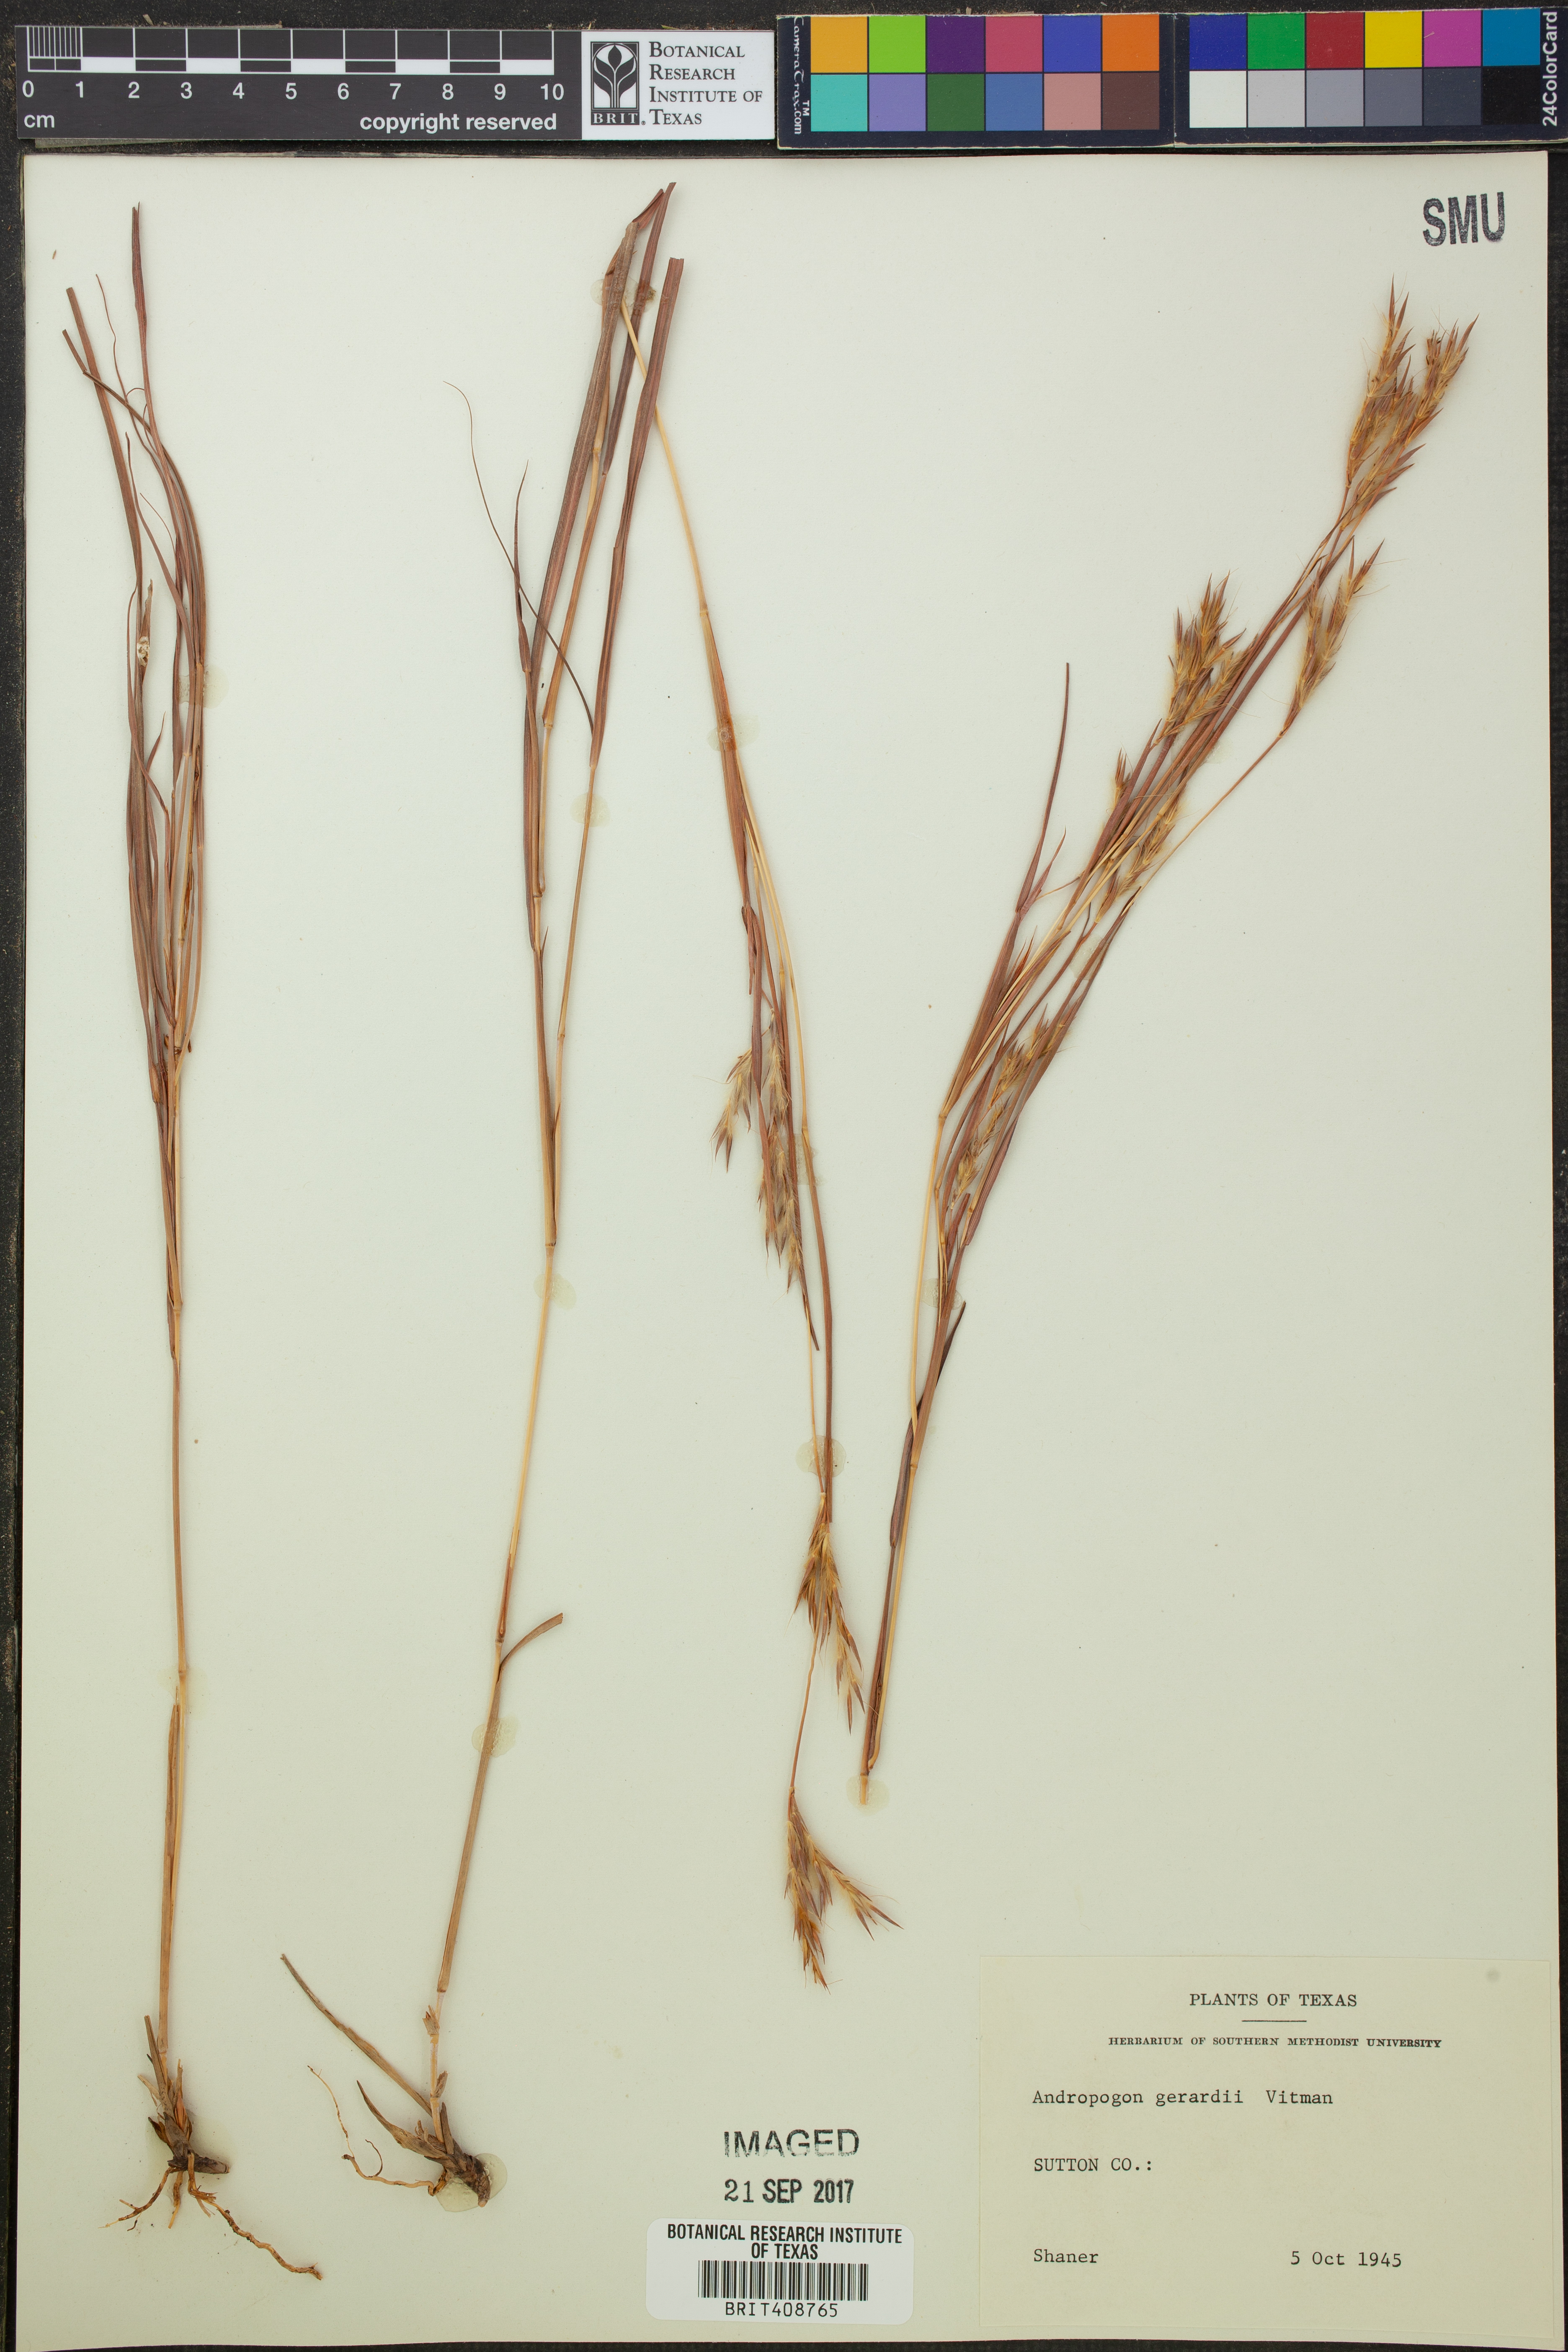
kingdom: Plantae
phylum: Tracheophyta
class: Liliopsida
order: Poales
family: Poaceae
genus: Andropogon
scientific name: Andropogon gerardi
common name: Big bluestem
